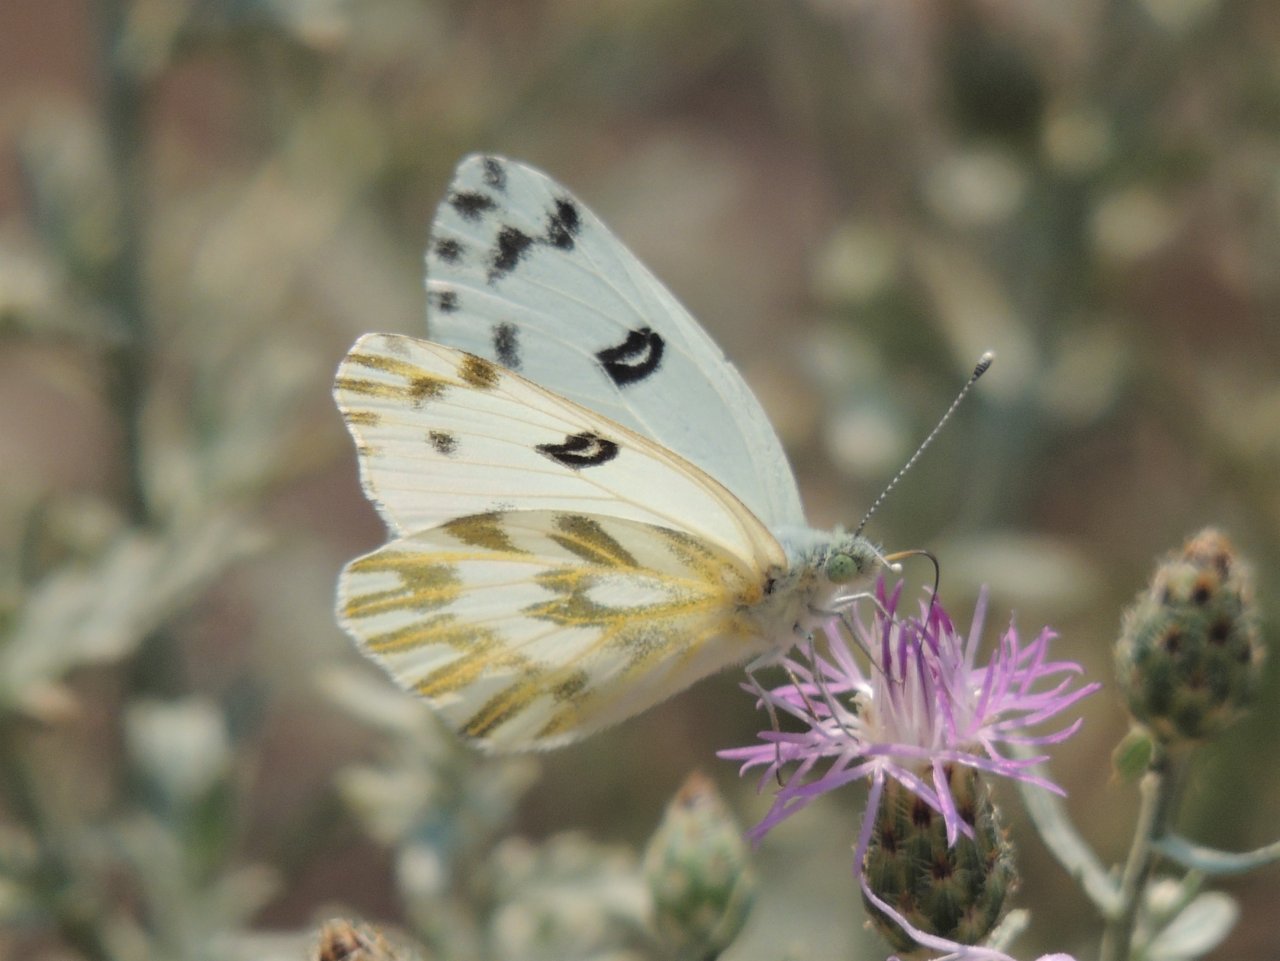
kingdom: Animalia
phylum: Arthropoda
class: Insecta
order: Lepidoptera
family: Pieridae
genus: Pontia
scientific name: Pontia beckerii
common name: Becker's White
